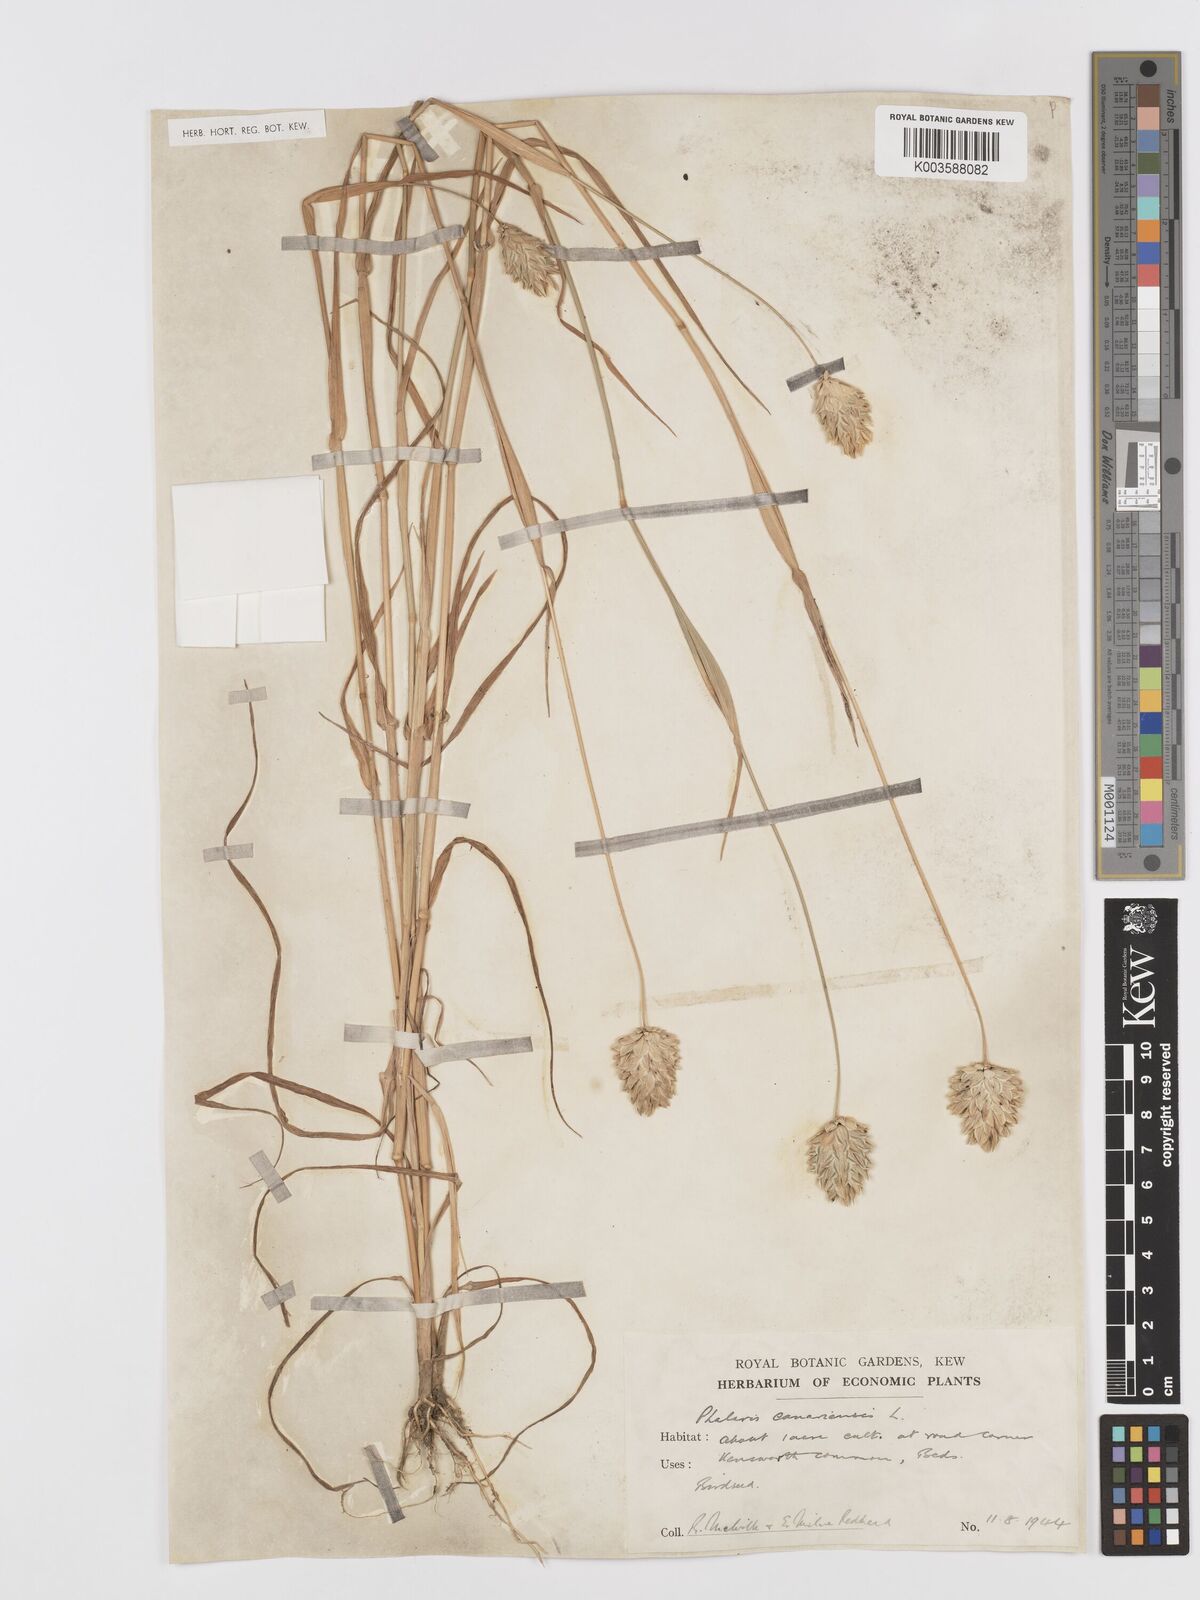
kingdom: Plantae
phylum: Tracheophyta
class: Liliopsida
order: Poales
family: Poaceae
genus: Phalaris
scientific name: Phalaris canariensis
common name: Annual canarygrass
